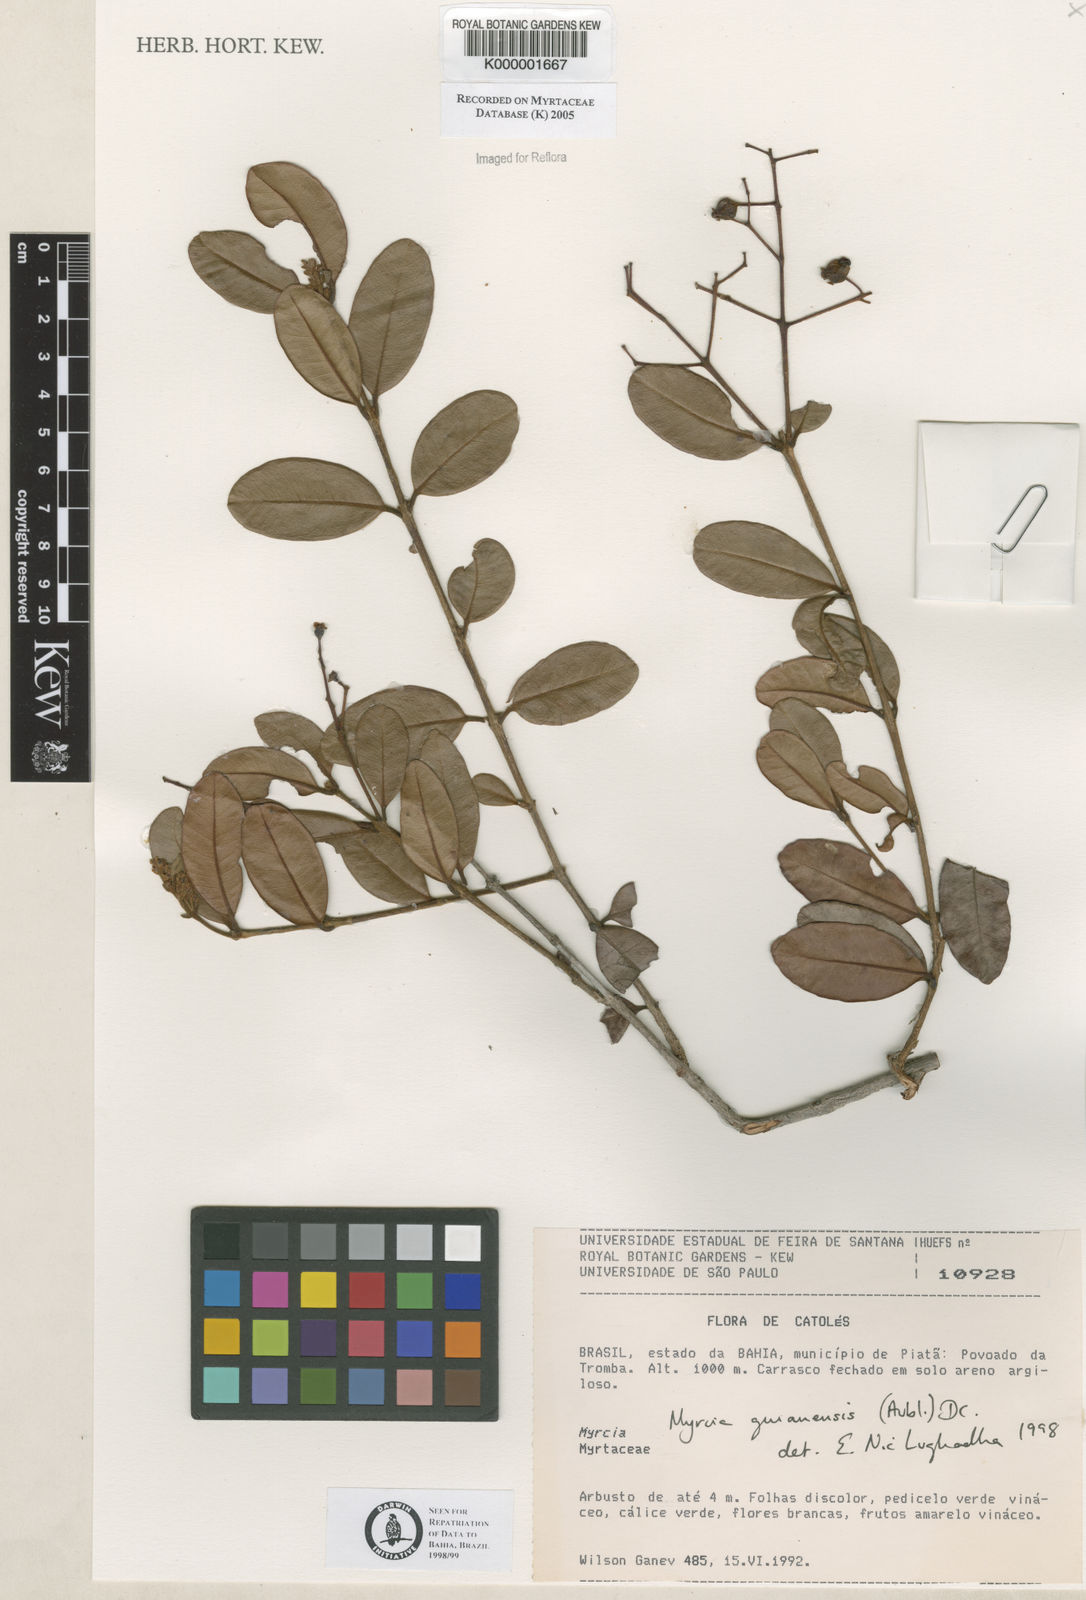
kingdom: Plantae
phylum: Tracheophyta
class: Magnoliopsida
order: Myrtales
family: Myrtaceae
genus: Myrcia
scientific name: Myrcia guianensis
